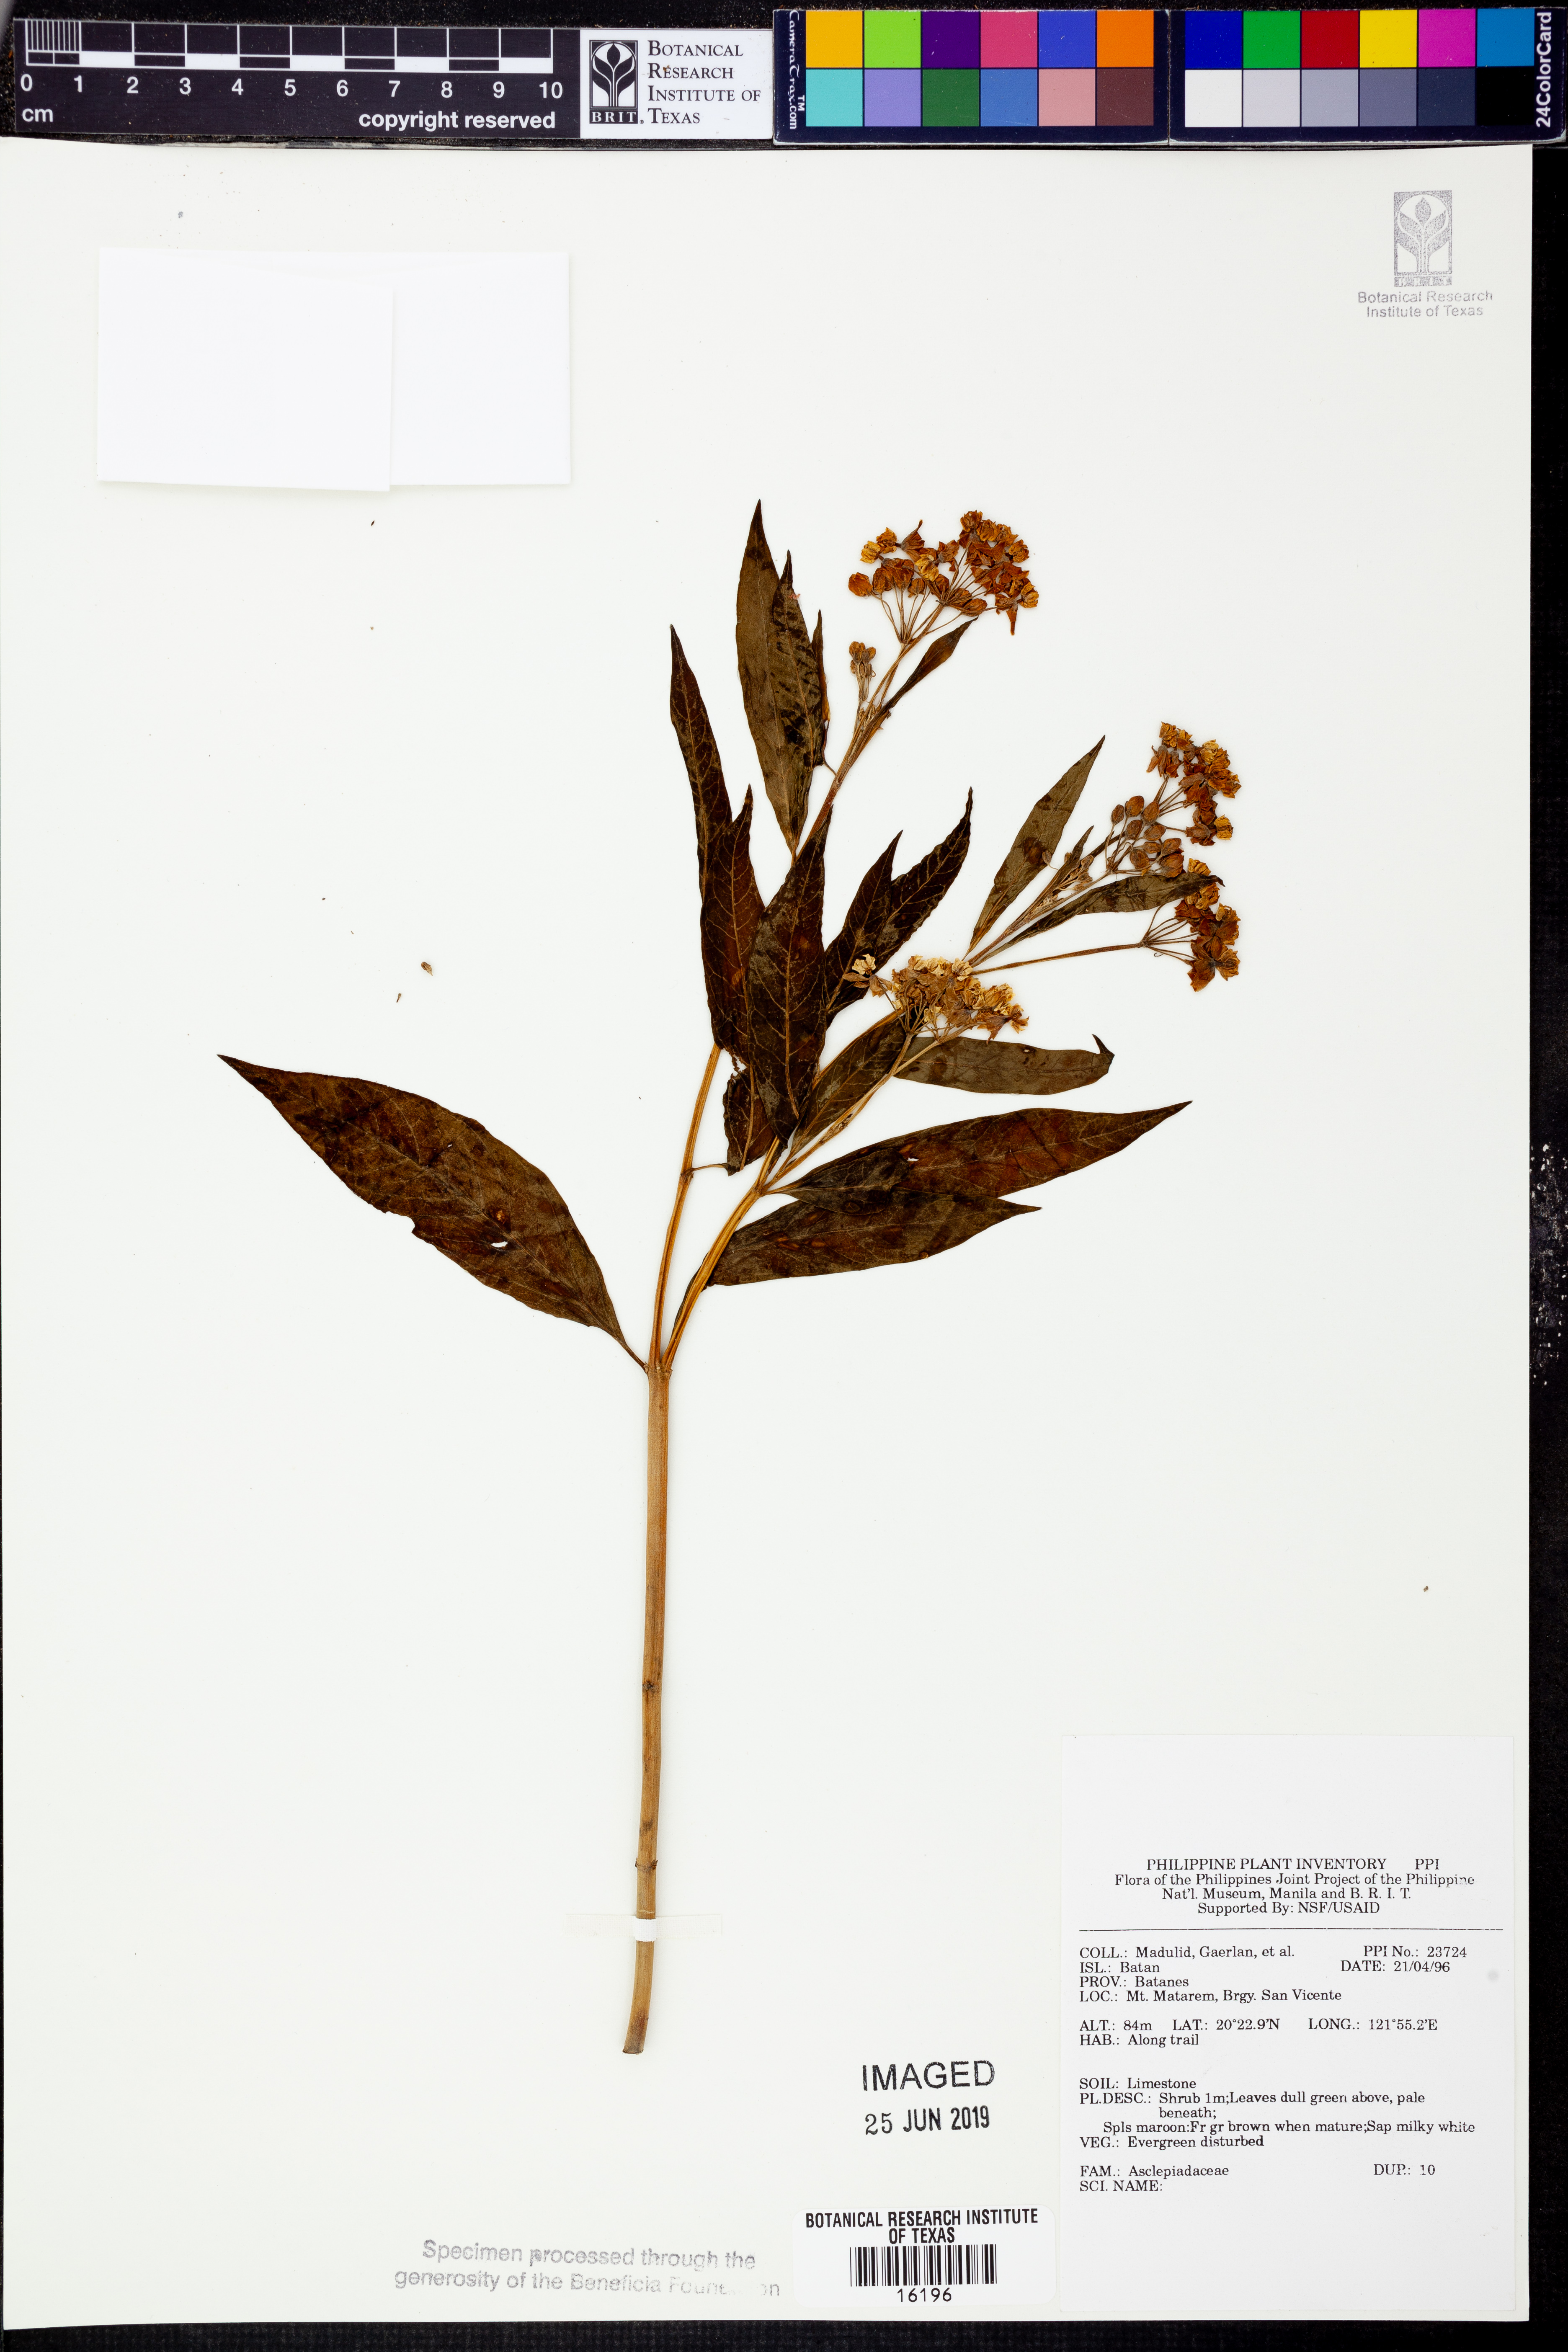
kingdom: Plantae
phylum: Tracheophyta
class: Magnoliopsida
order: Gentianales
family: Apocynaceae
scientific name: Apocynaceae
